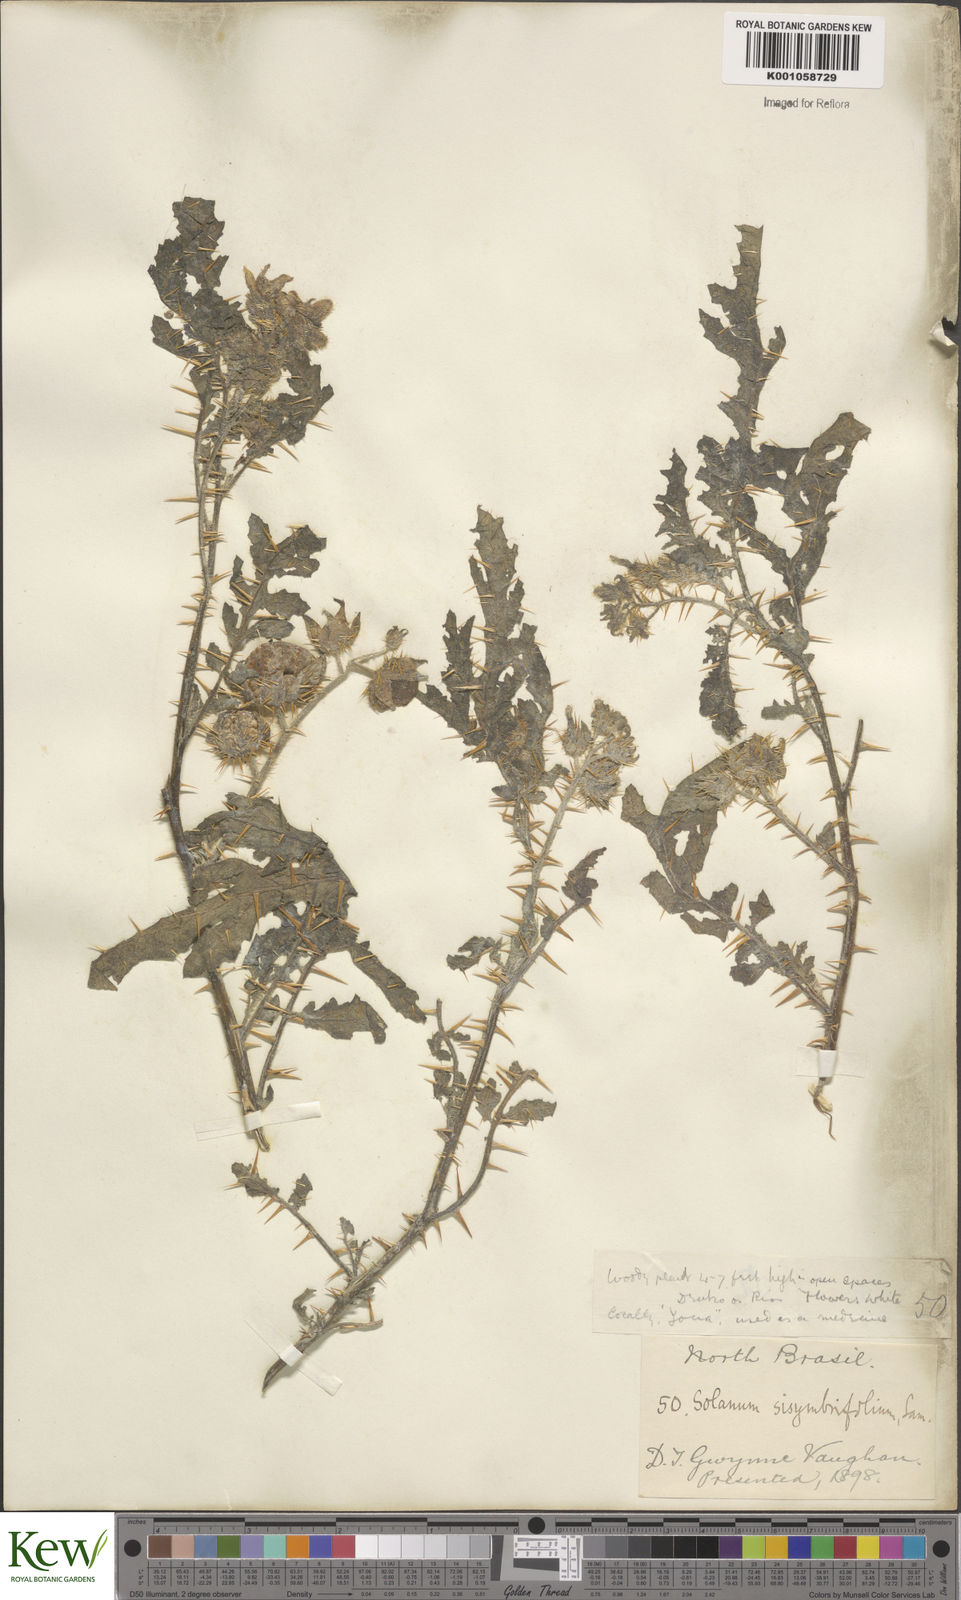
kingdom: Plantae
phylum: Tracheophyta
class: Magnoliopsida
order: Solanales
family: Solanaceae
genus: Solanum
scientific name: Solanum sisymbriifolium
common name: Red buffalo-bur
